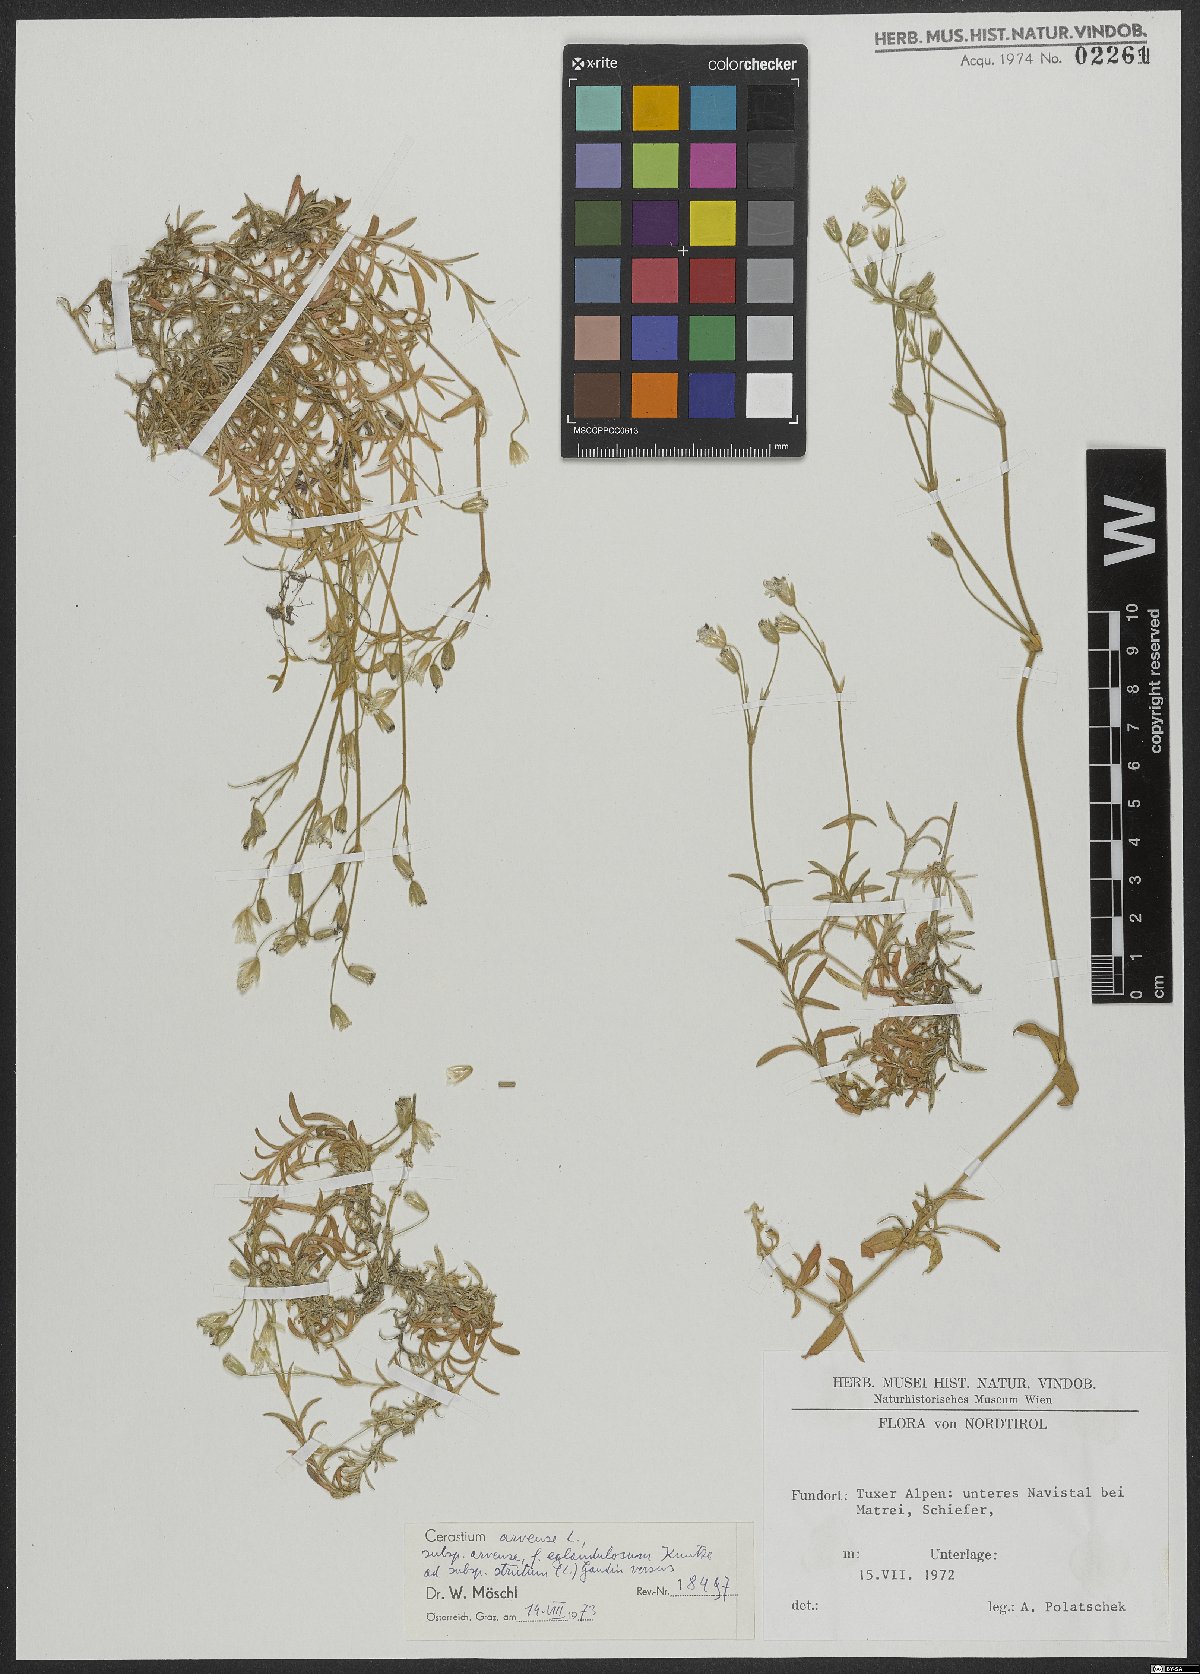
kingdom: Plantae
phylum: Tracheophyta
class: Magnoliopsida
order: Caryophyllales
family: Caryophyllaceae
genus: Cerastium
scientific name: Cerastium arvense
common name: Field mouse-ear
